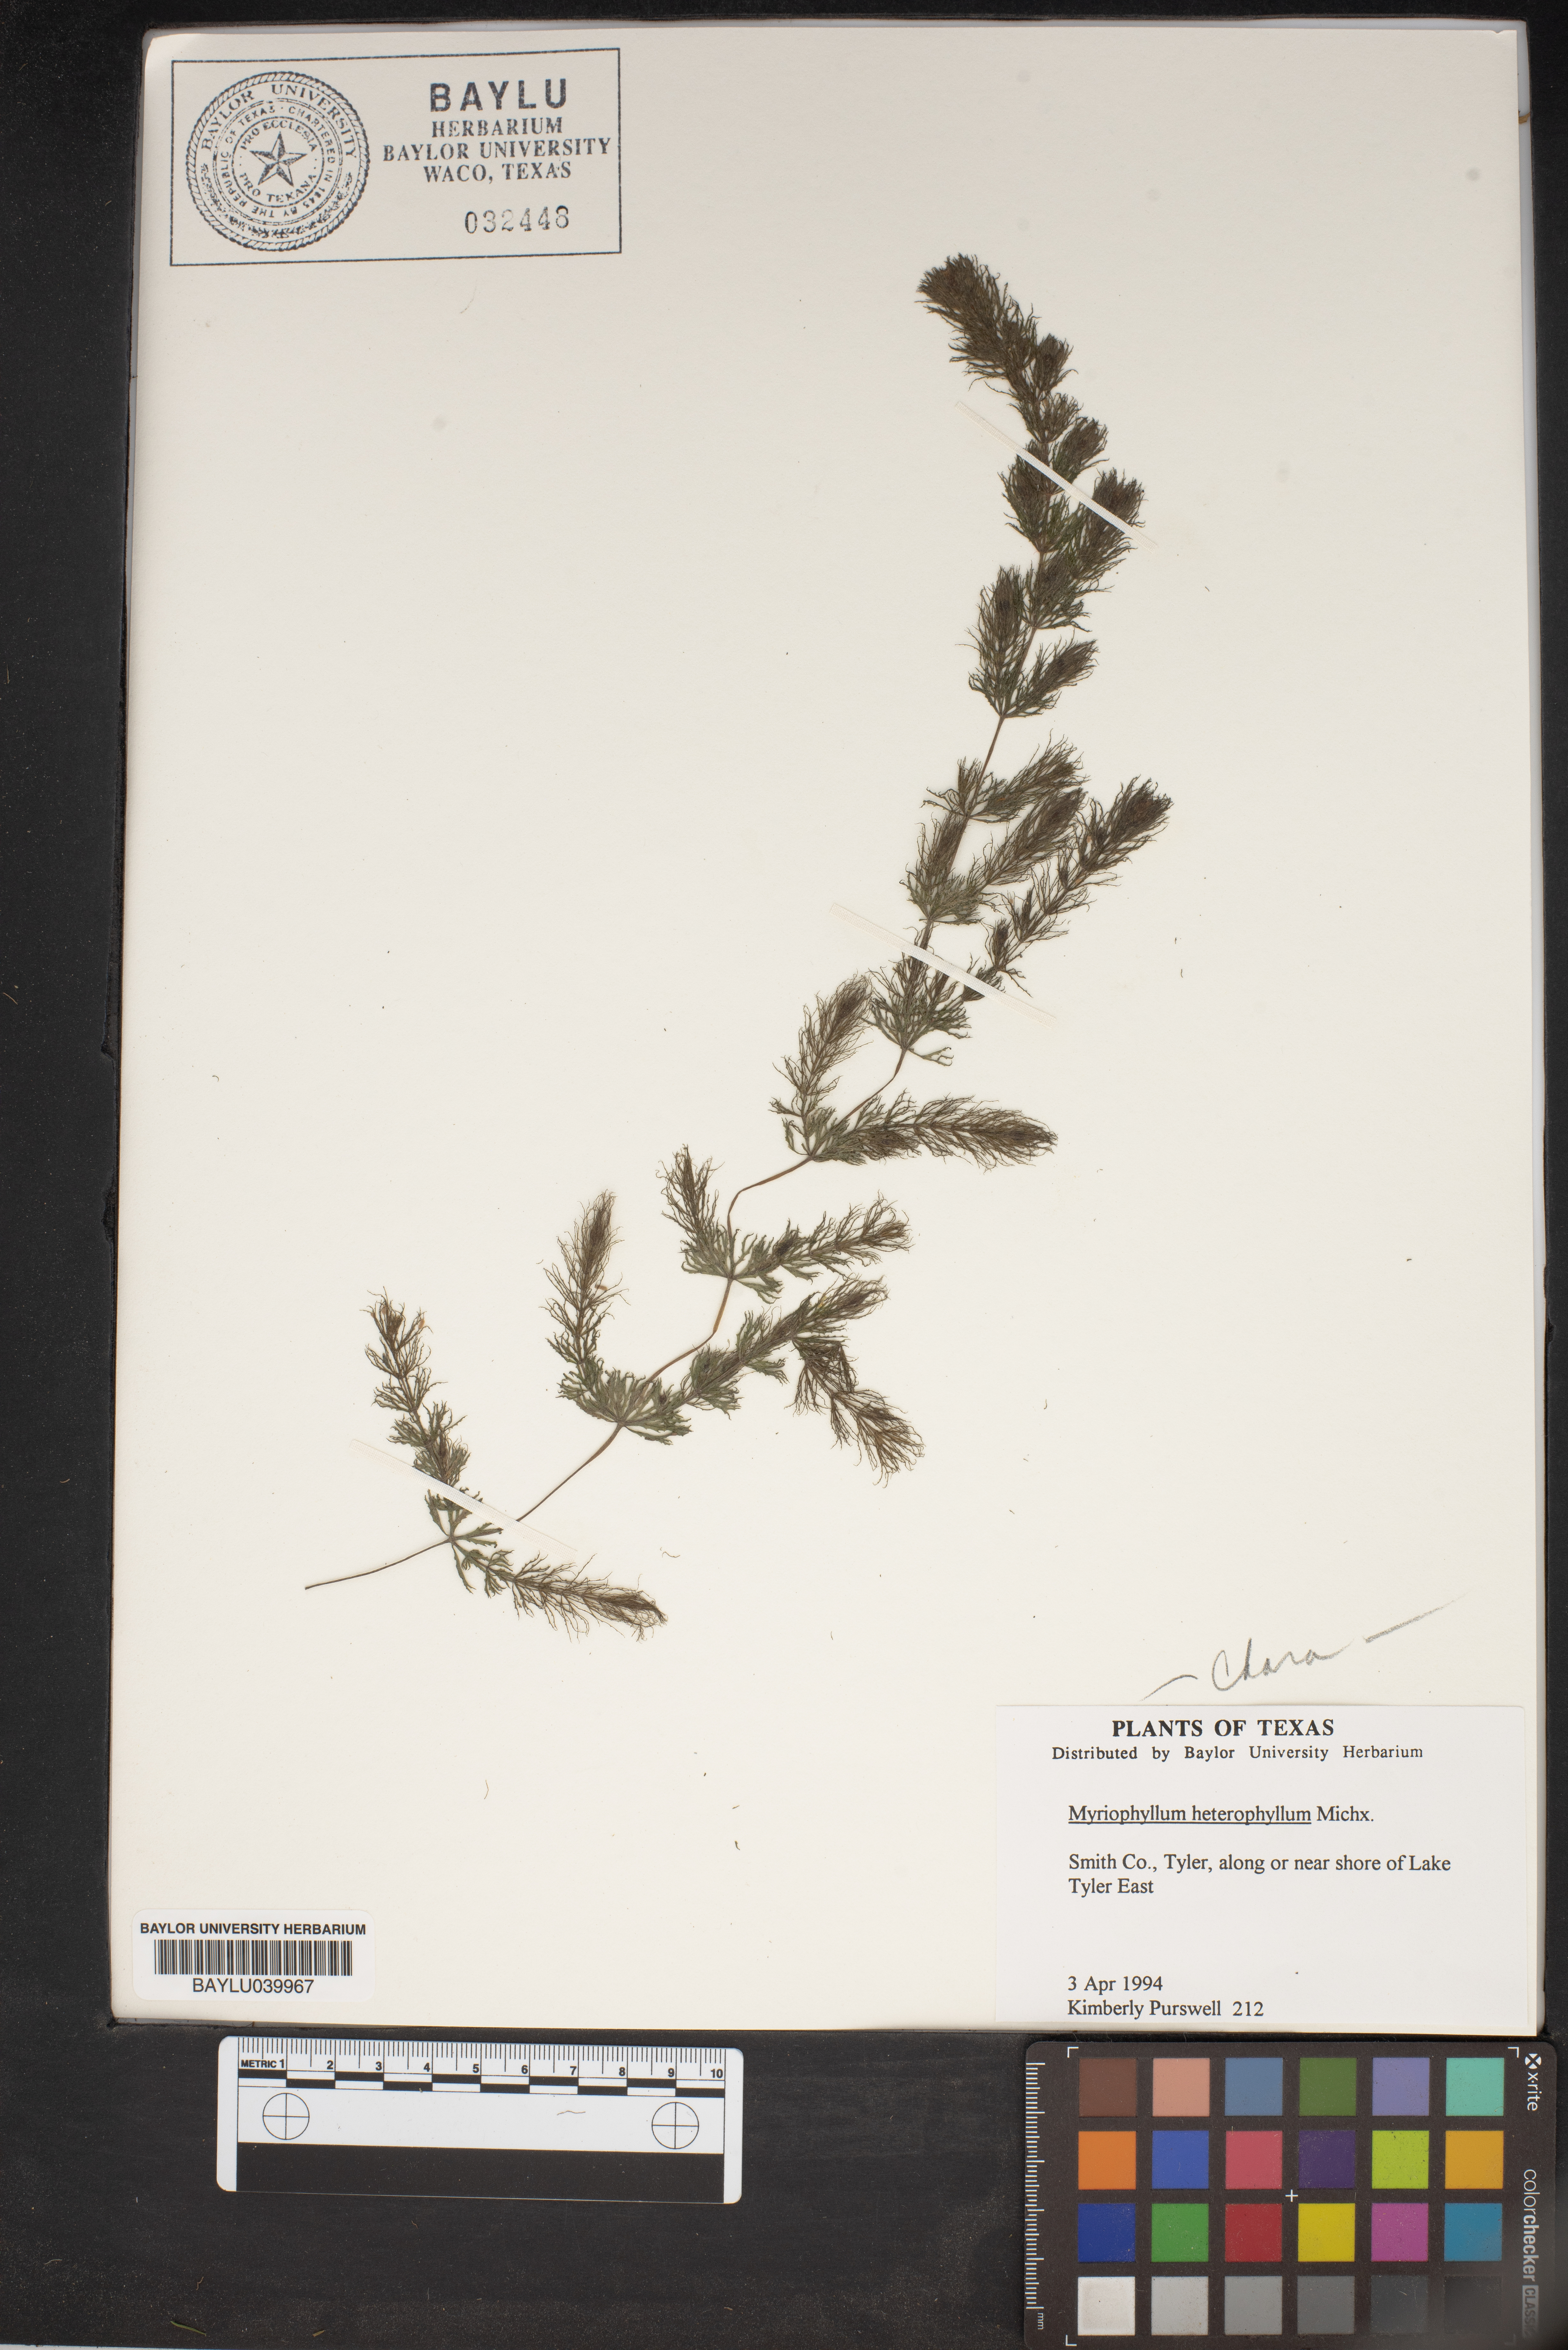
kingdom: Plantae
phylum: Tracheophyta
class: Magnoliopsida
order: Saxifragales
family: Haloragaceae
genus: Myriophyllum
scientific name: Myriophyllum heterophyllum
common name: Variable watermilfoil
